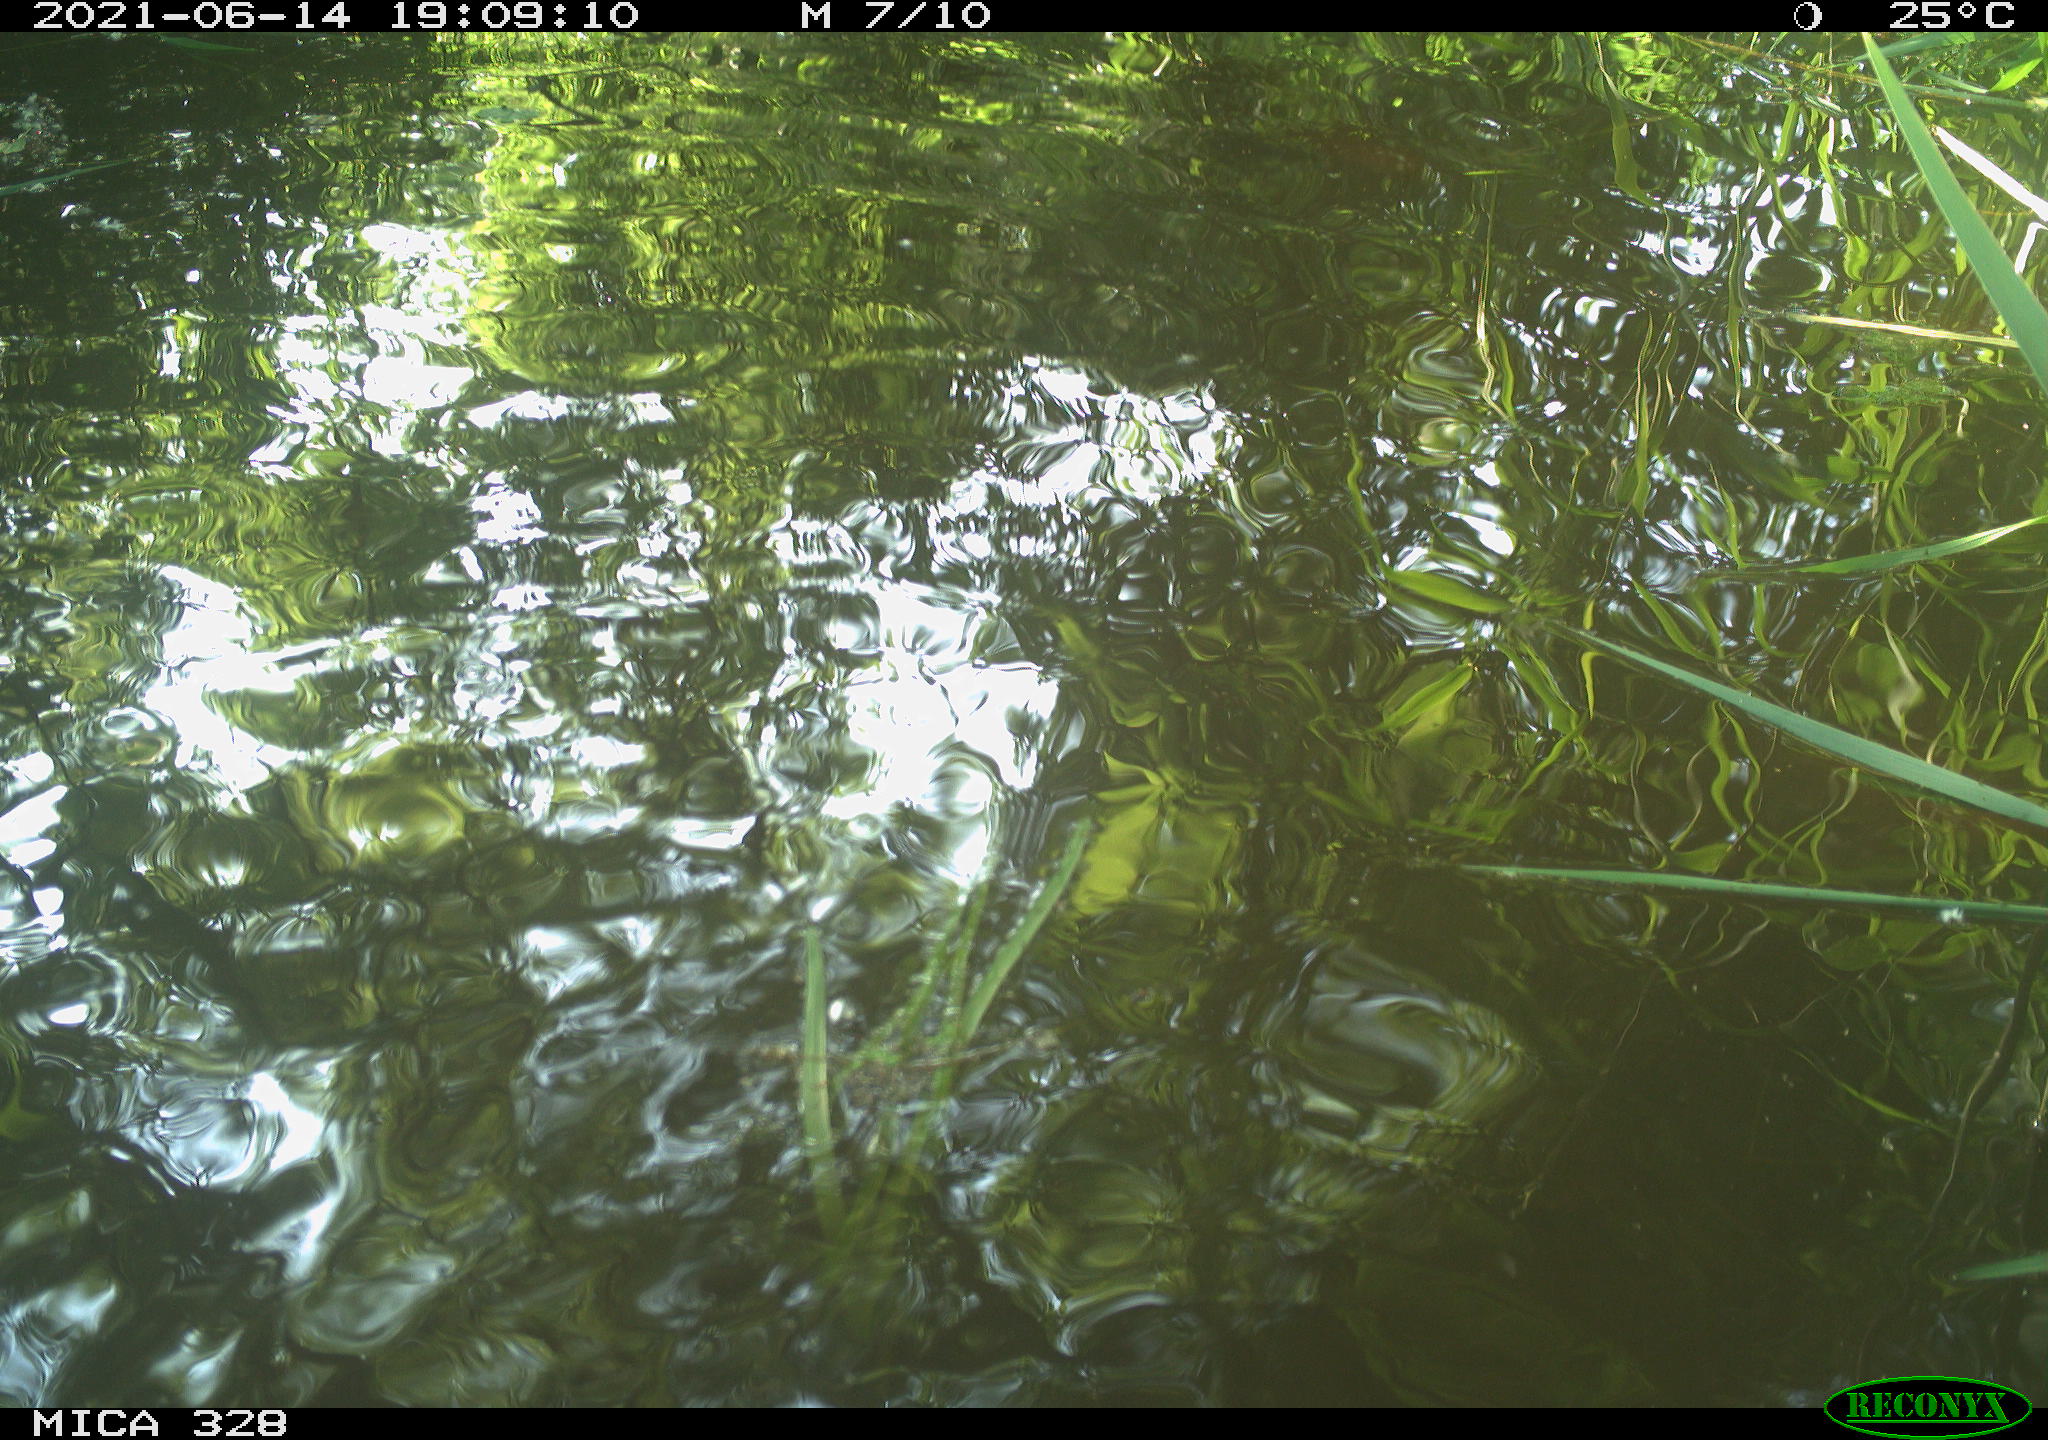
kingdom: Animalia
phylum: Chordata
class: Aves
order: Anseriformes
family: Anatidae
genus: Aix
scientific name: Aix galericulata
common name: Mandarin duck
